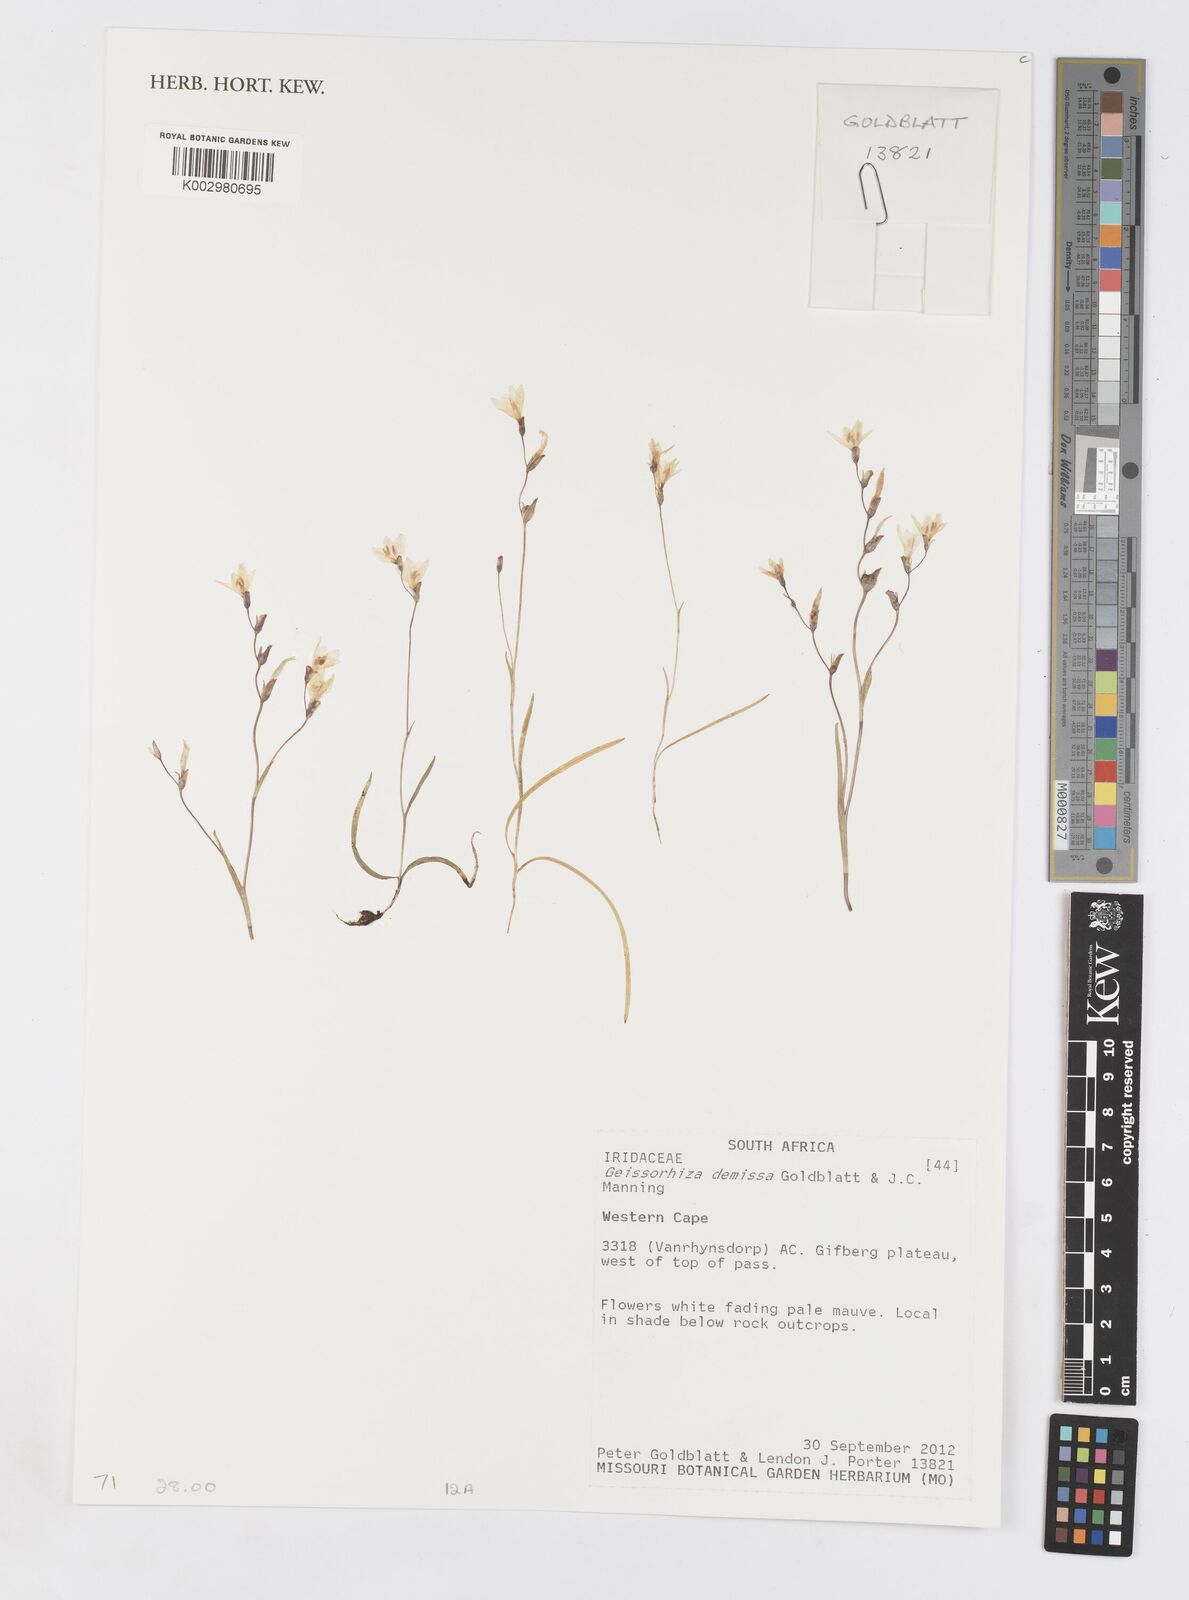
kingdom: Plantae
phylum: Tracheophyta
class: Liliopsida
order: Asparagales
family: Iridaceae
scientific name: Iridaceae
